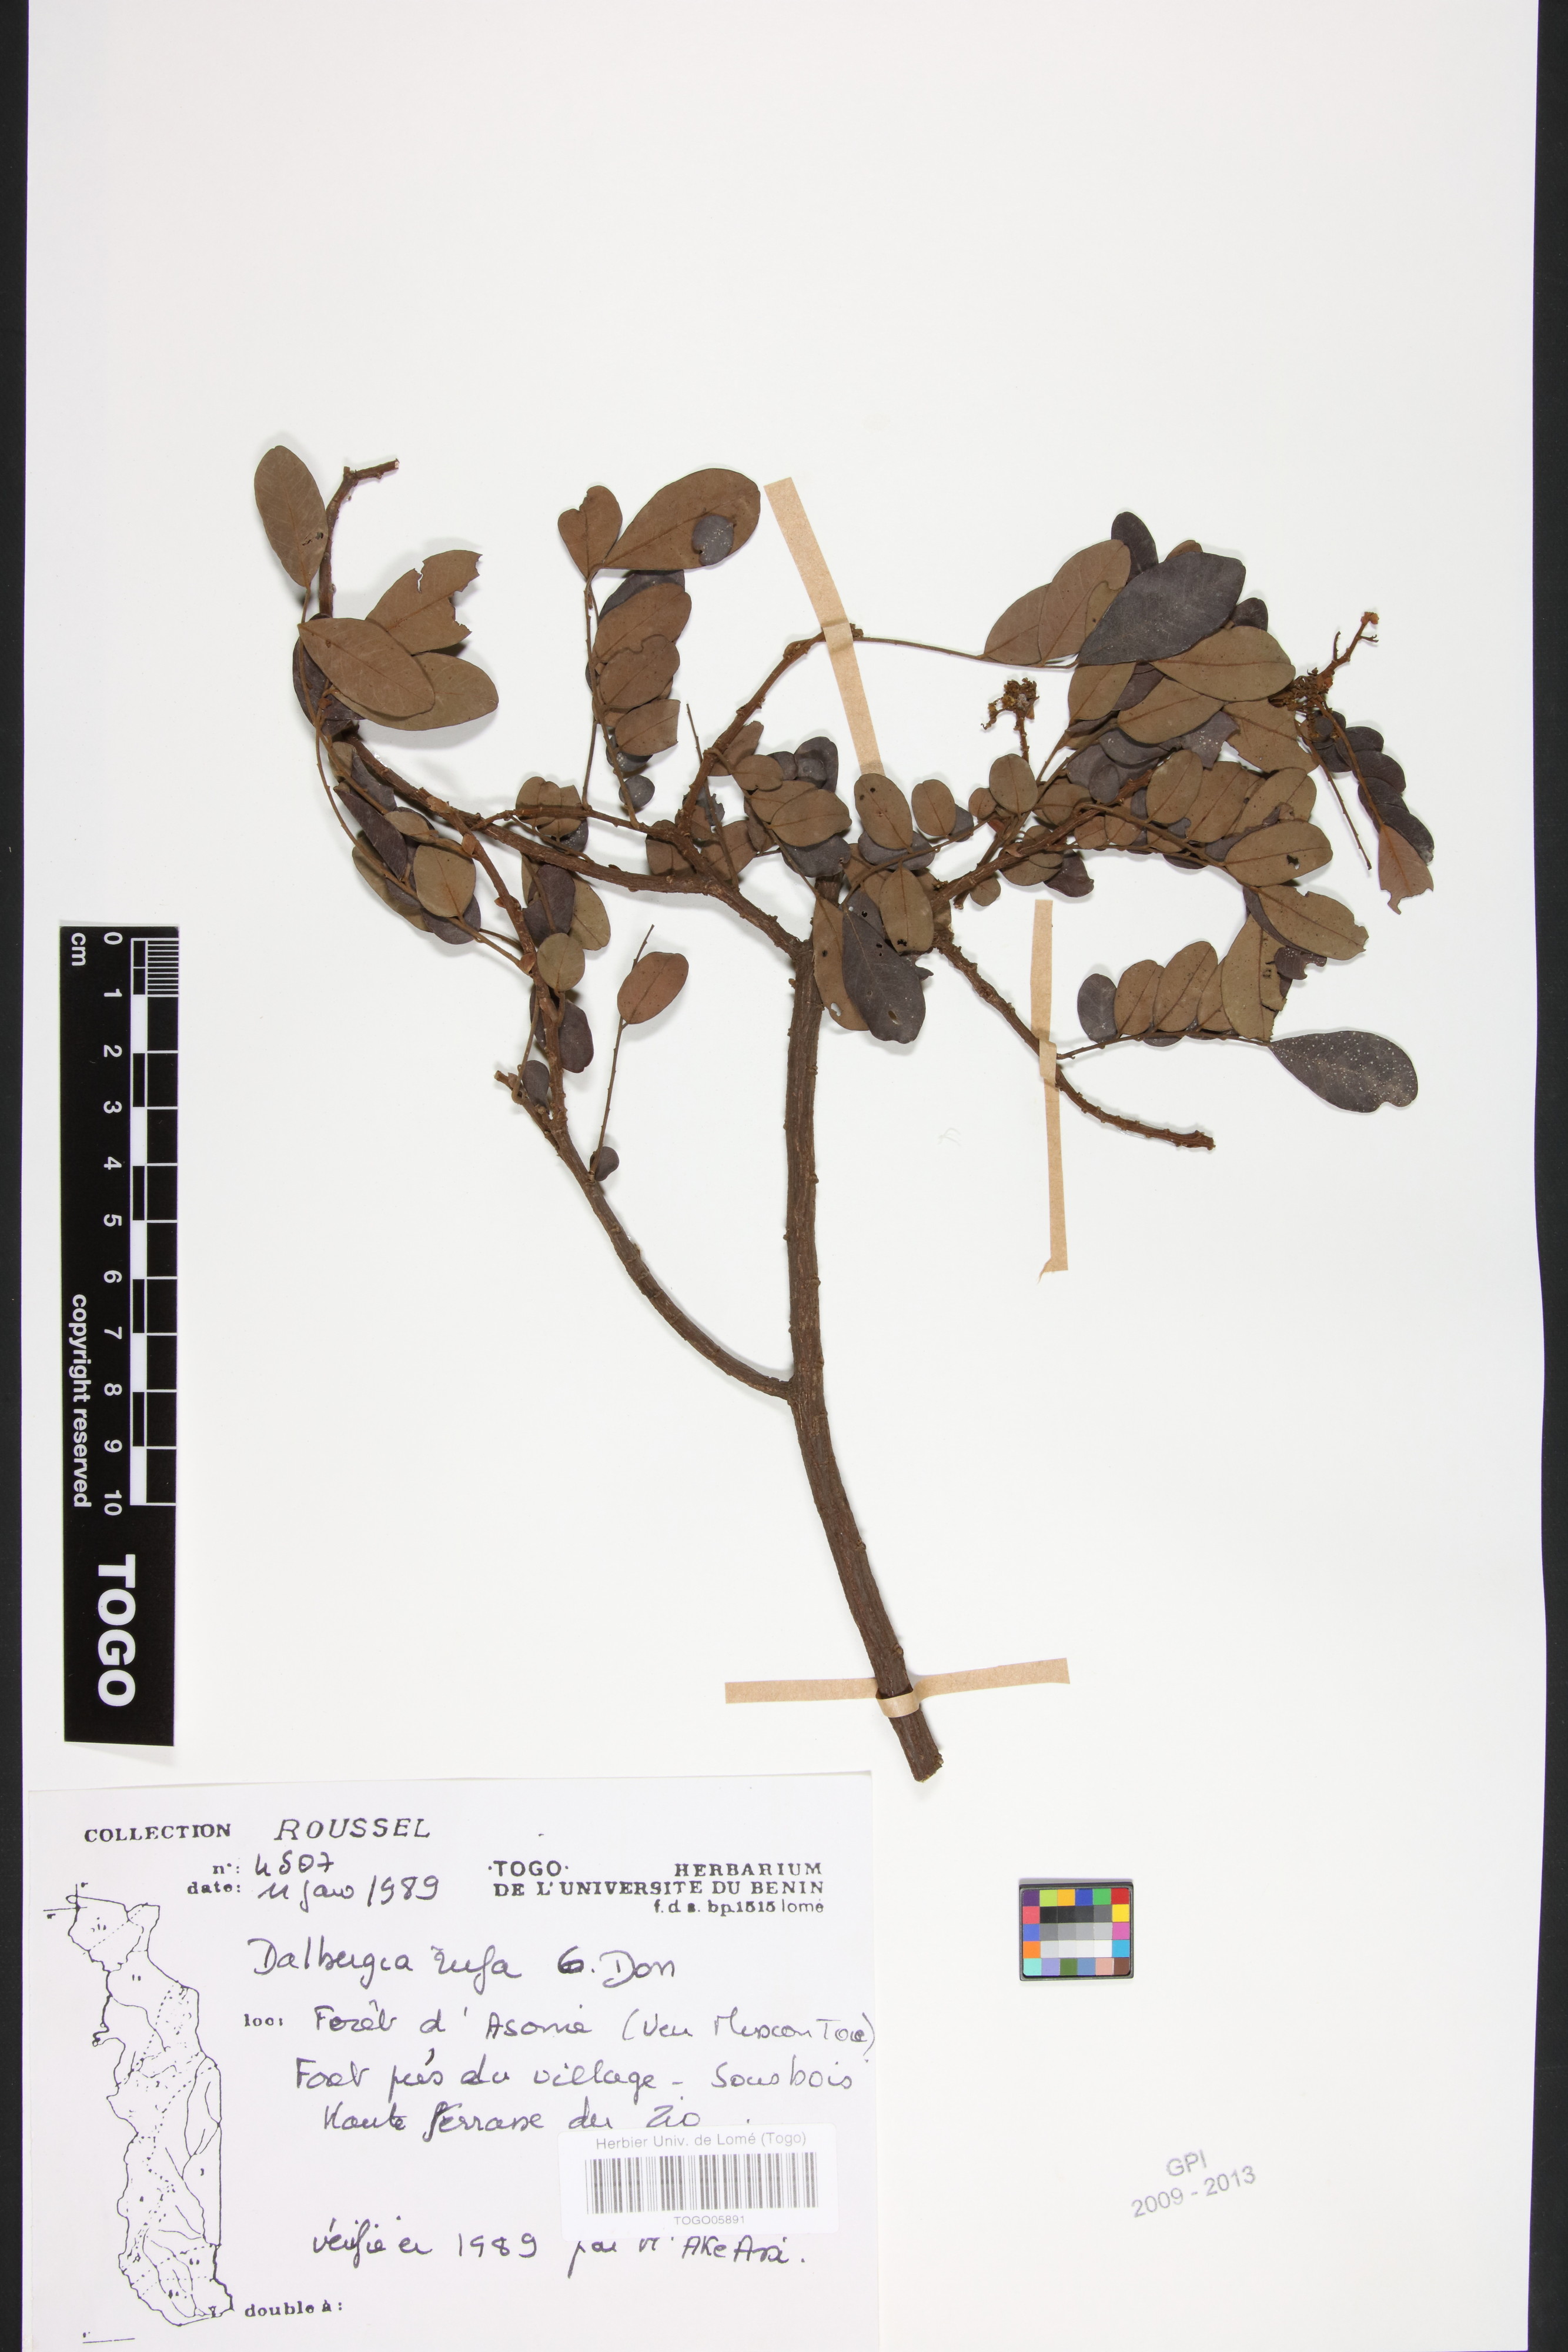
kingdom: Plantae
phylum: Tracheophyta
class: Magnoliopsida
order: Fabales
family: Fabaceae
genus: Dalbergia
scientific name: Dalbergia rufa
